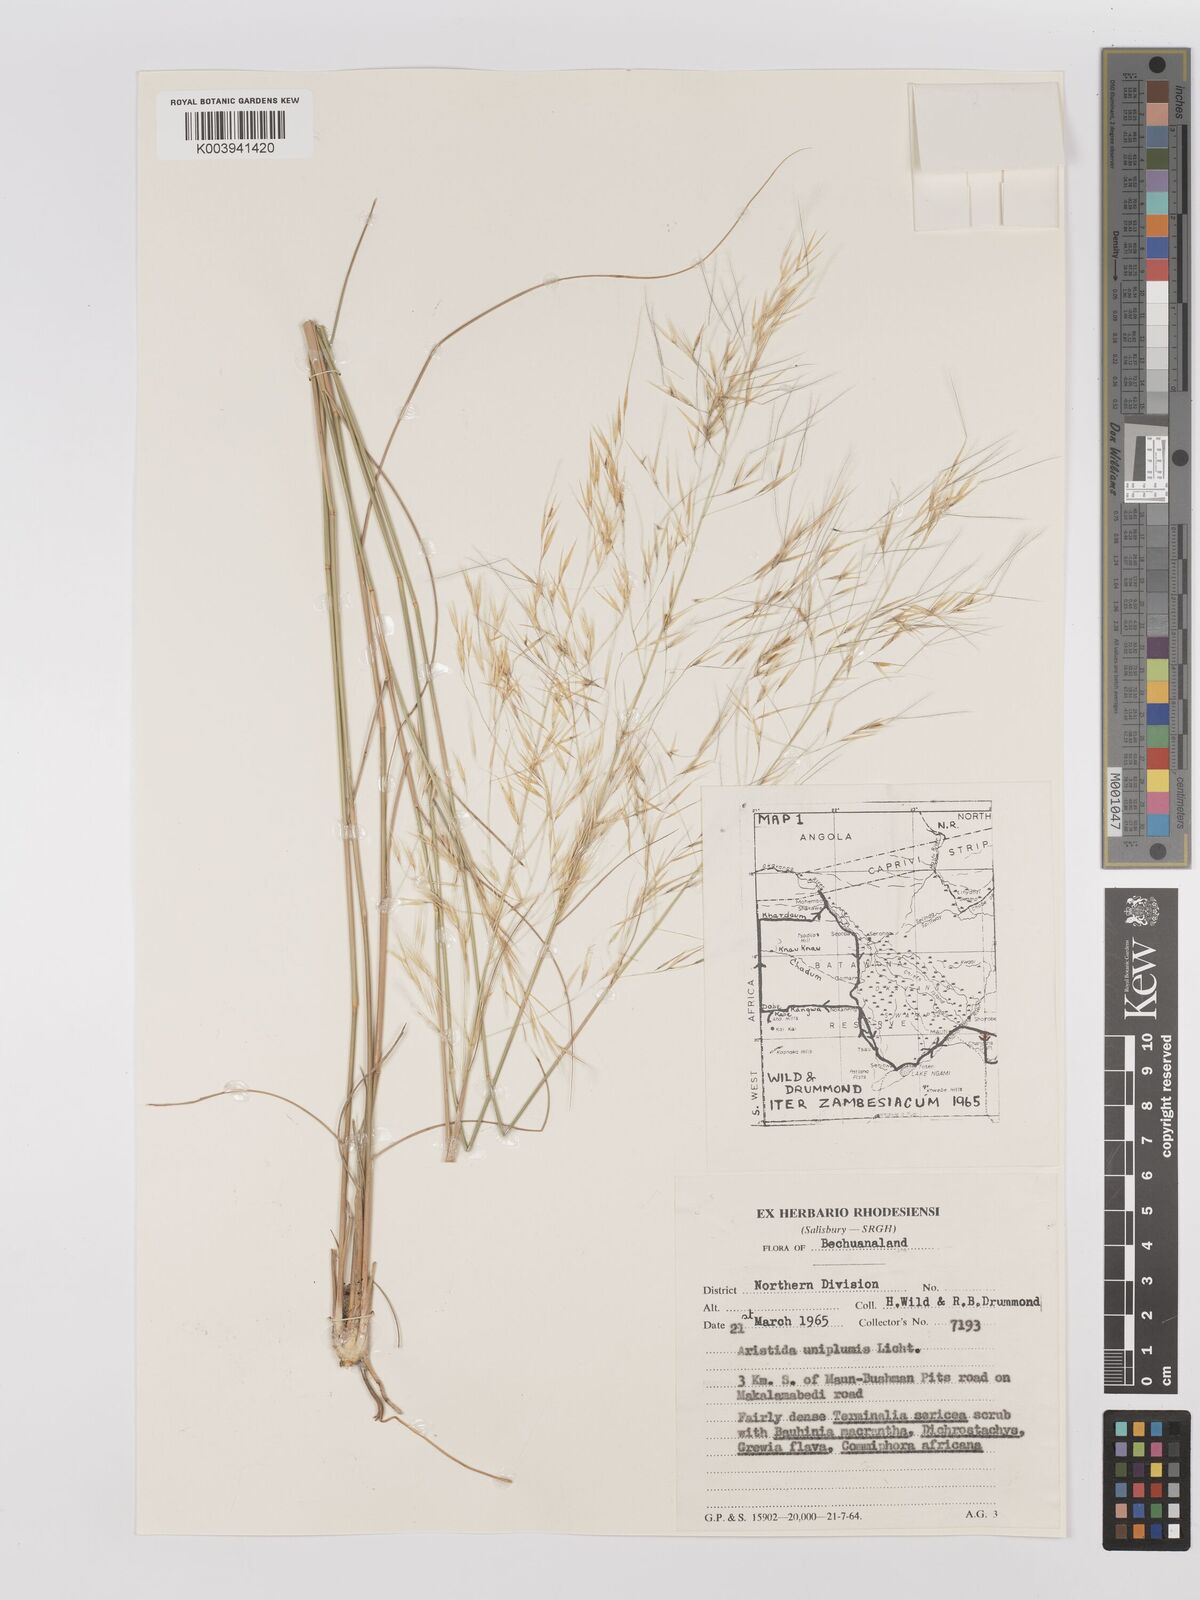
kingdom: Plantae
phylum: Tracheophyta
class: Liliopsida
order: Poales
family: Poaceae
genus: Stipagrostis
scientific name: Stipagrostis uniplumis
